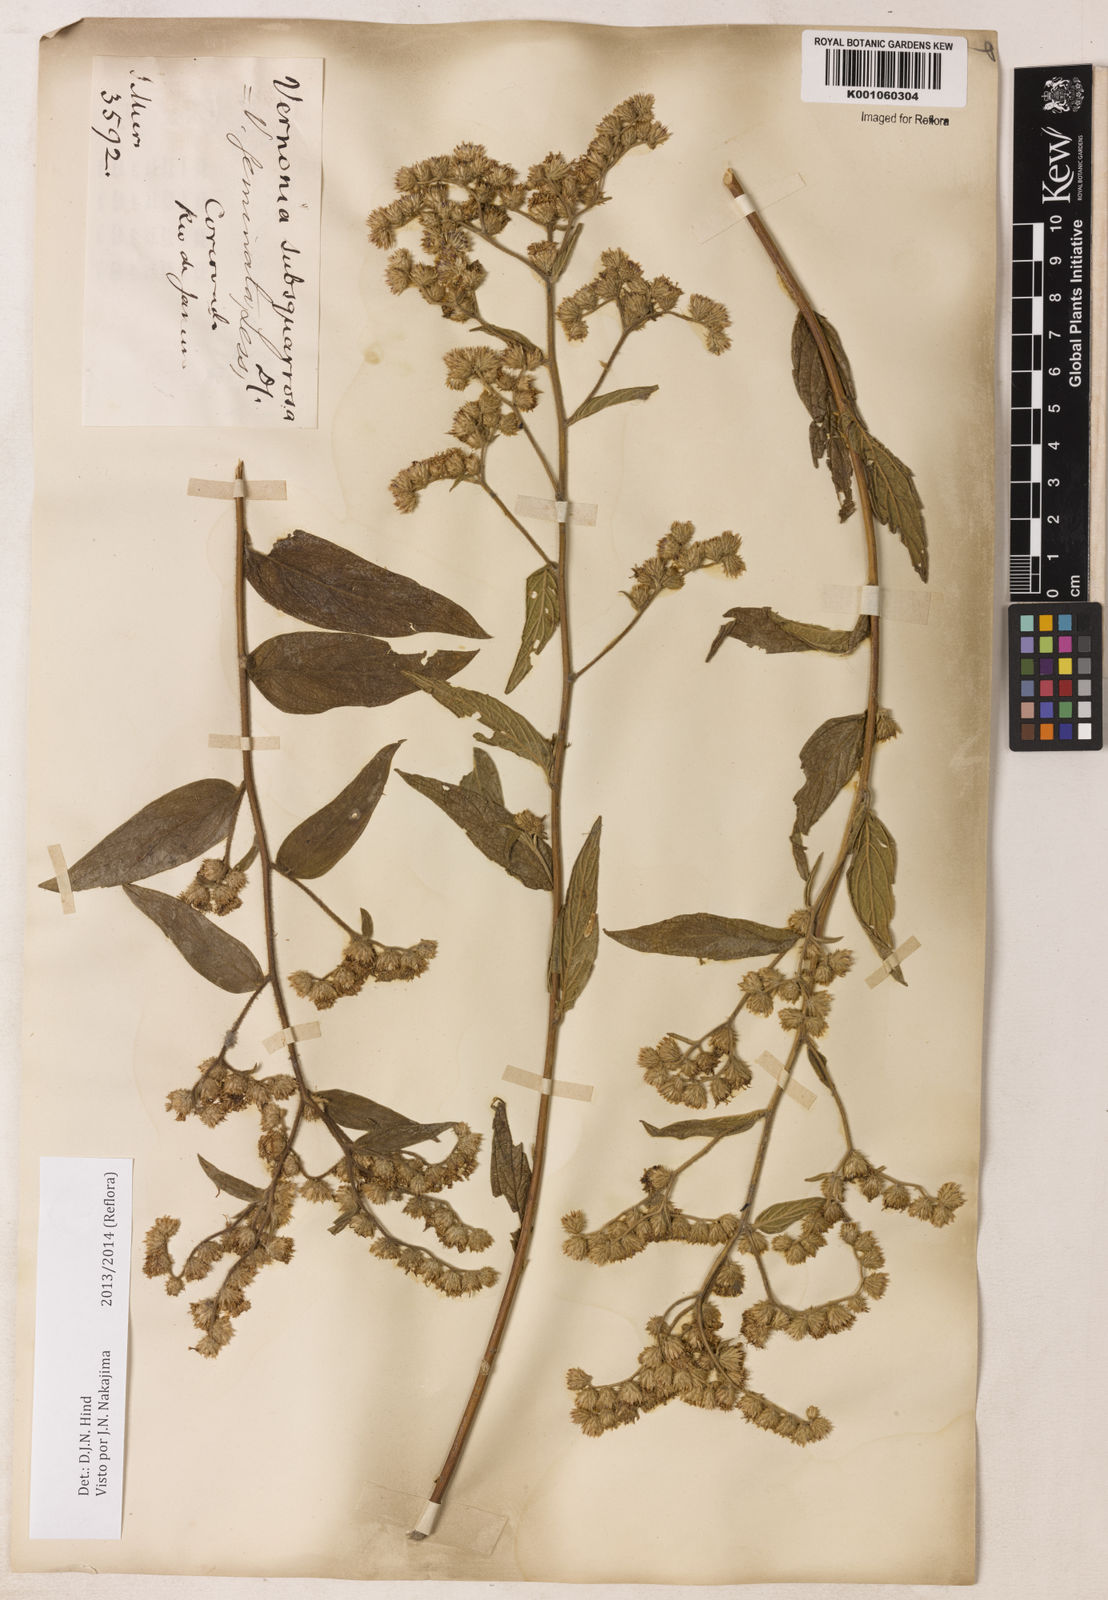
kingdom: Plantae
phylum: Tracheophyta
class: Magnoliopsida
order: Asterales
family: Asteraceae
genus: Lepidaploa
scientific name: Lepidaploa canescens
